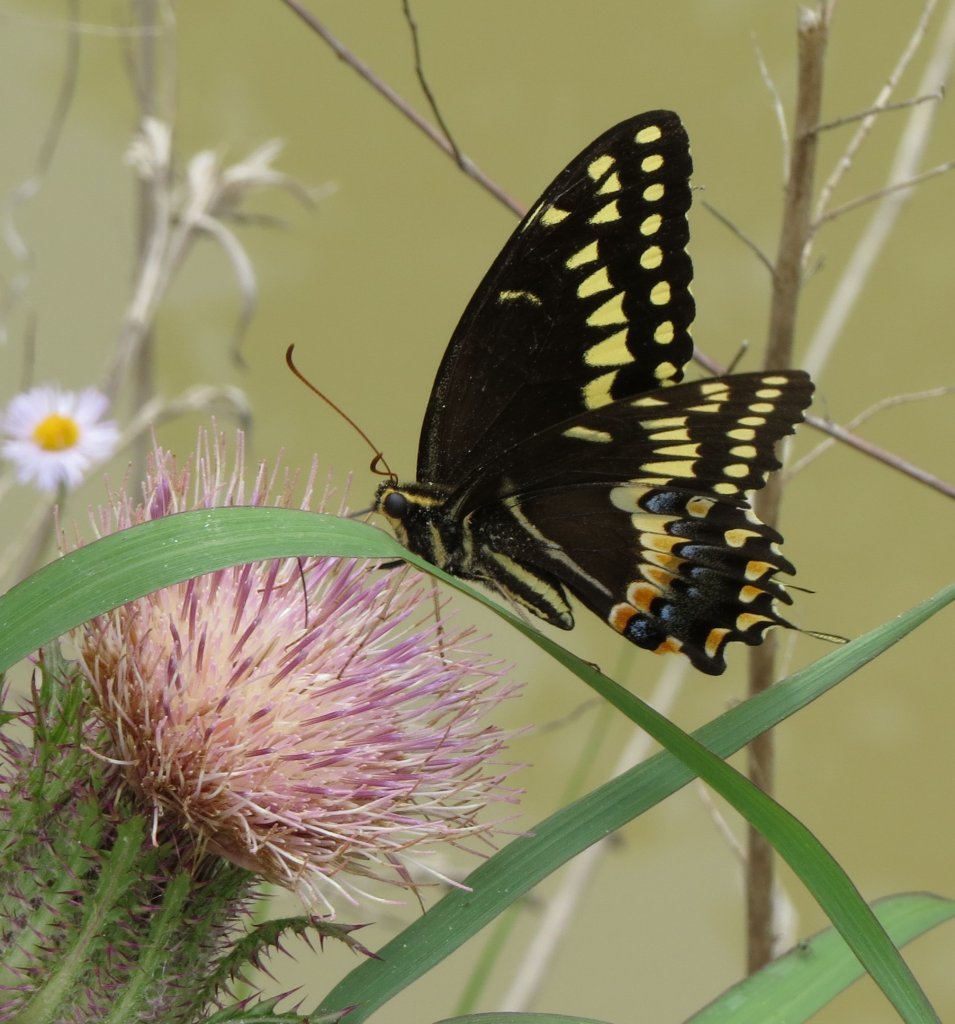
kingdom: Animalia
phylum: Arthropoda
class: Insecta
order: Lepidoptera
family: Papilionidae
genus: Pterourus
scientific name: Pterourus palamedes
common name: Palamedes Swallowtail
